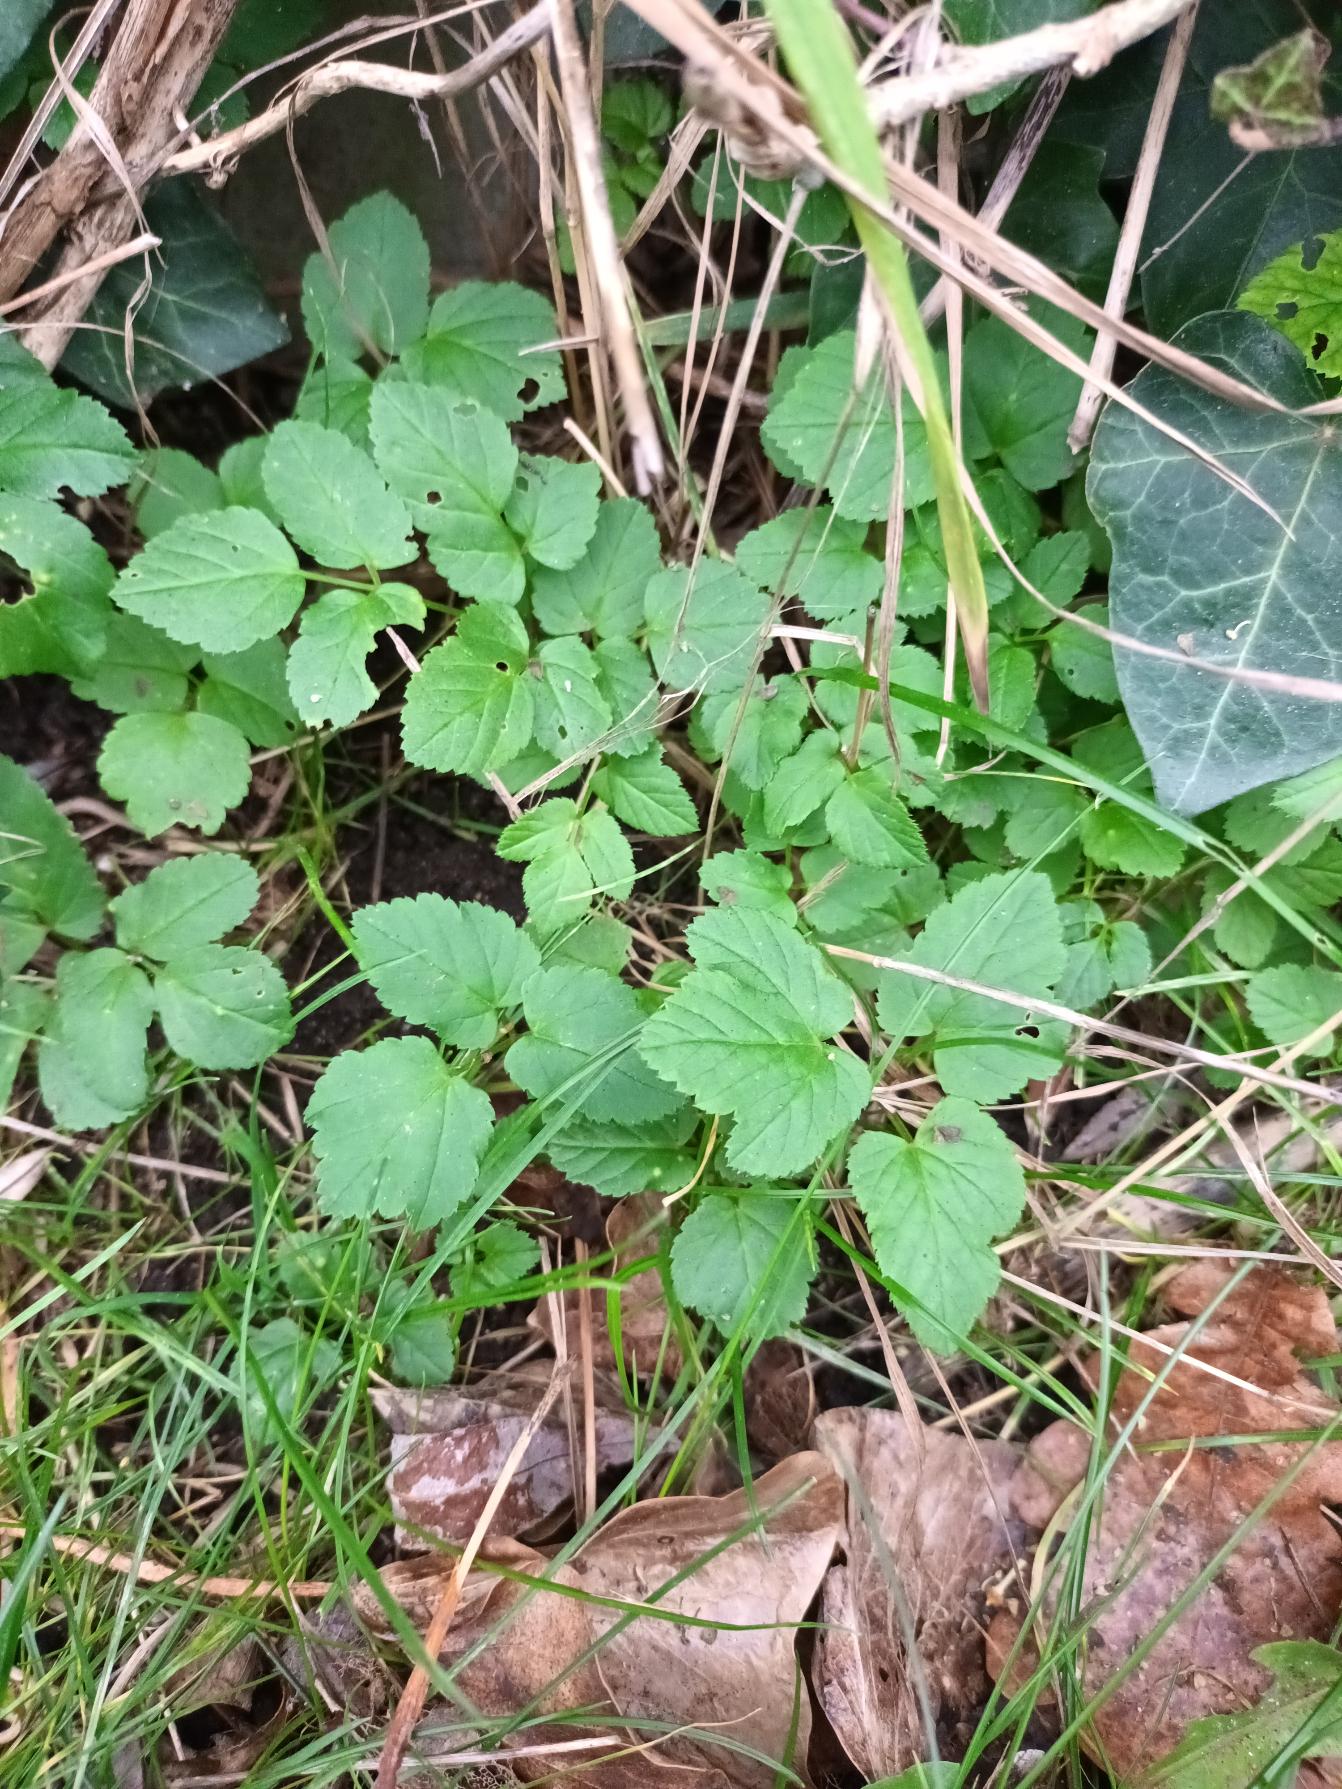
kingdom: Plantae
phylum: Tracheophyta
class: Magnoliopsida
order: Apiales
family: Apiaceae
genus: Aegopodium
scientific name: Aegopodium podagraria
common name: Skvalderkål
